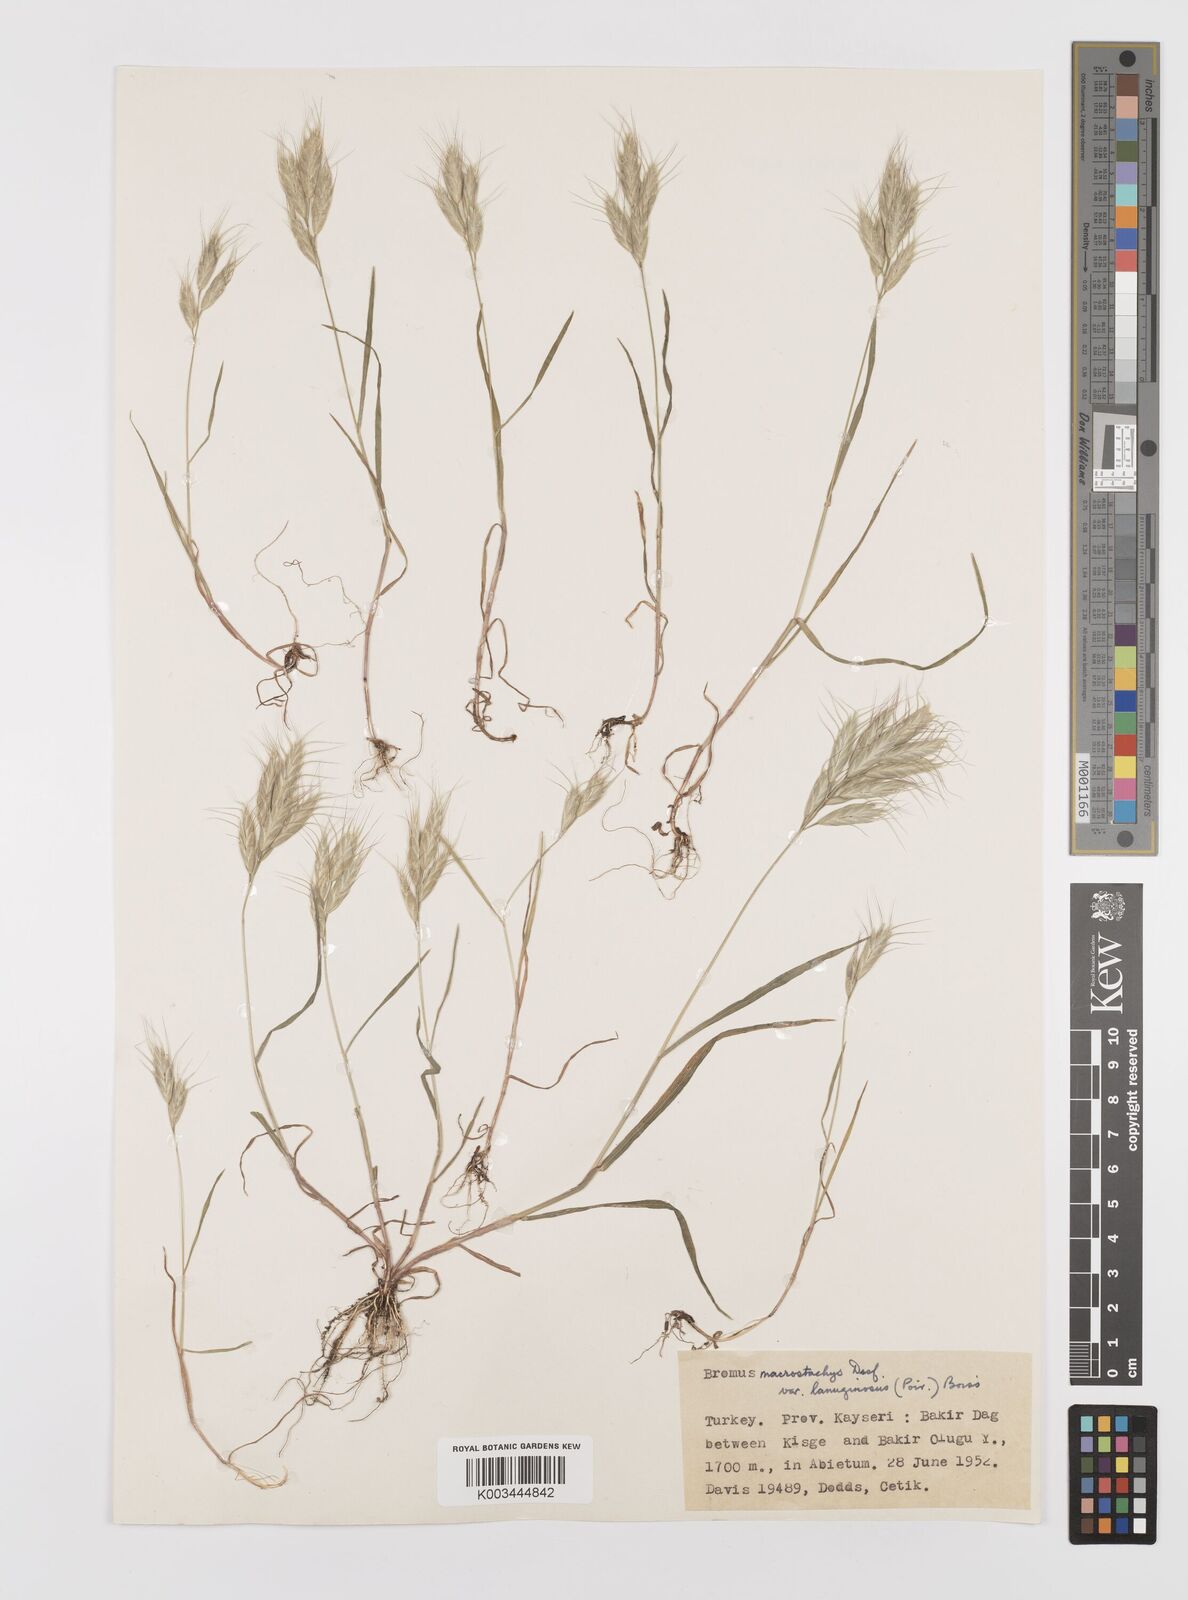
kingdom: Plantae
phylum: Tracheophyta
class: Liliopsida
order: Poales
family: Poaceae
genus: Bromus
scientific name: Bromus lanceolatus
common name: Mediterranean brome
